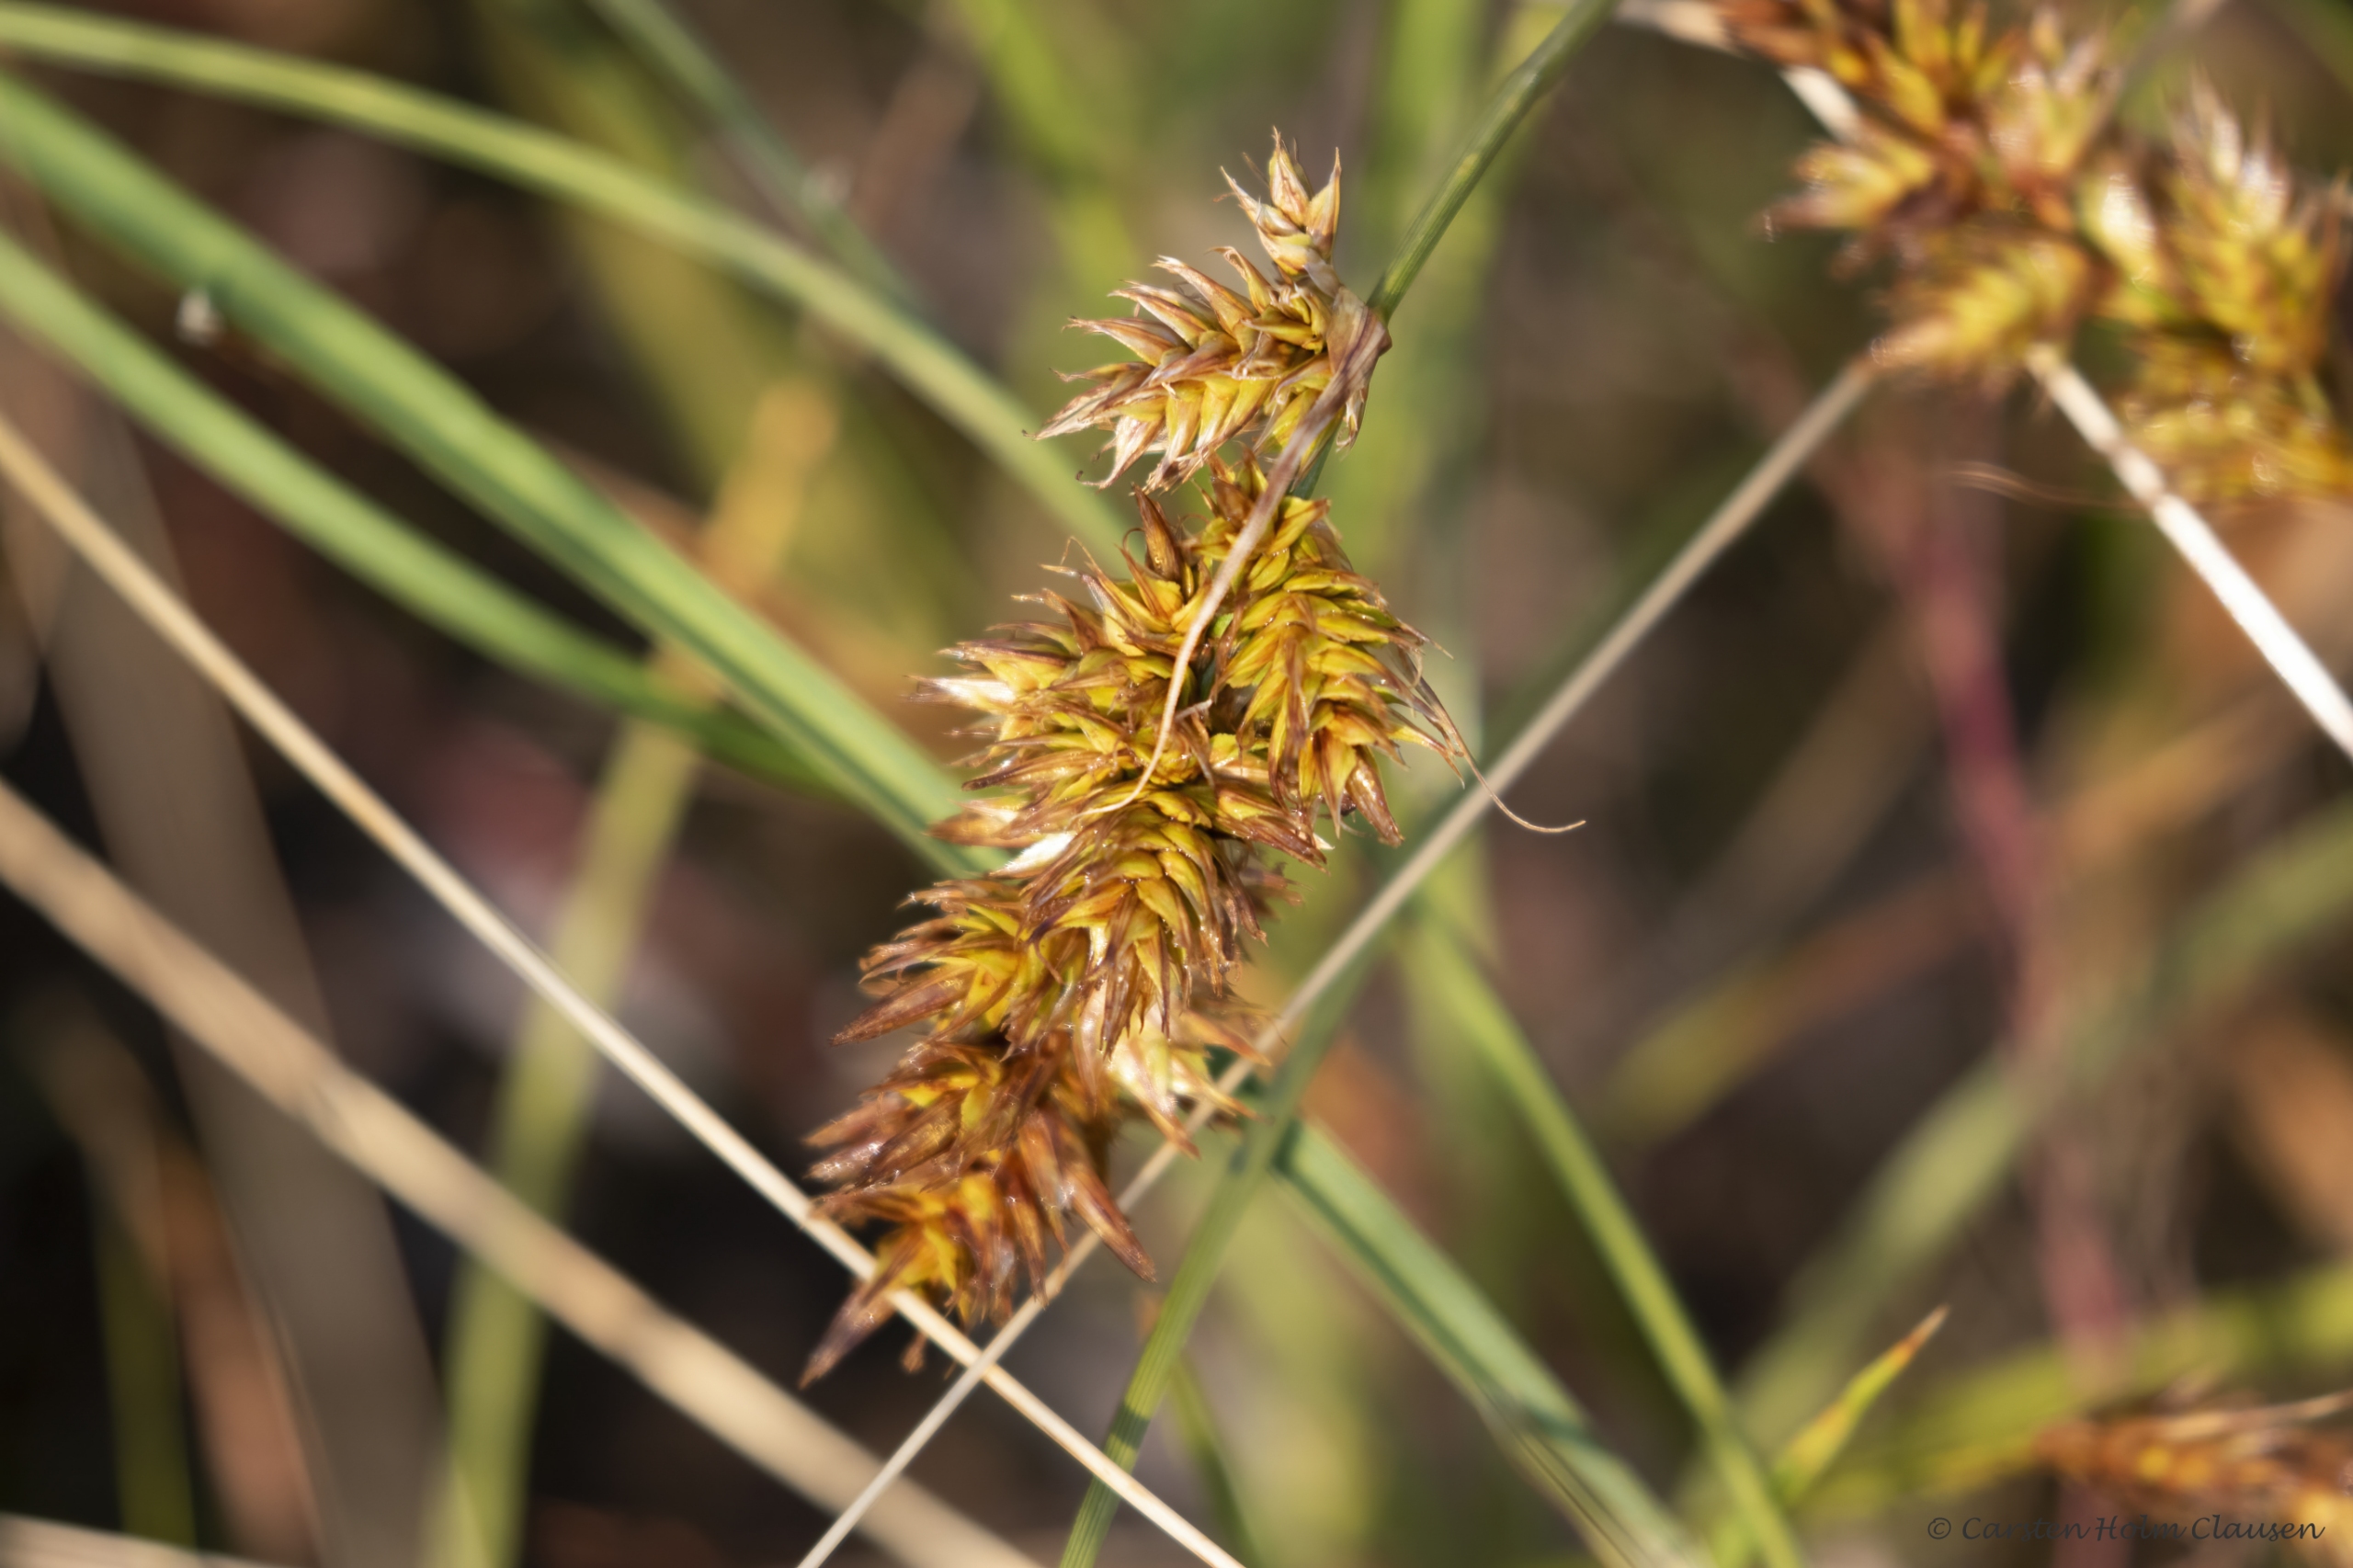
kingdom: Plantae
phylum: Tracheophyta
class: Liliopsida
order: Poales
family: Cyperaceae
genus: Carex
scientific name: Carex arenaria
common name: Sand-star
